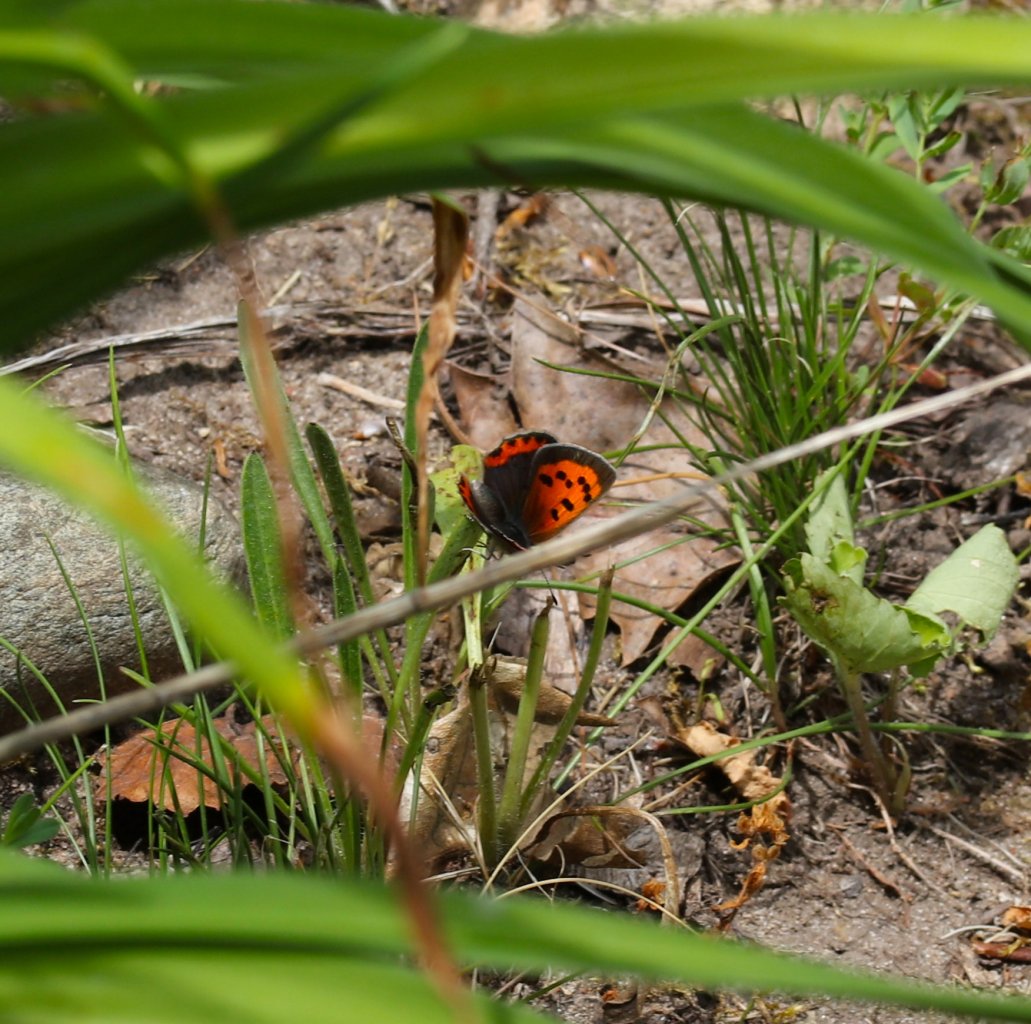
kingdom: Animalia
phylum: Arthropoda
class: Insecta
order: Lepidoptera
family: Lycaenidae
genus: Lycaena
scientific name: Lycaena phlaeas
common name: American Copper
